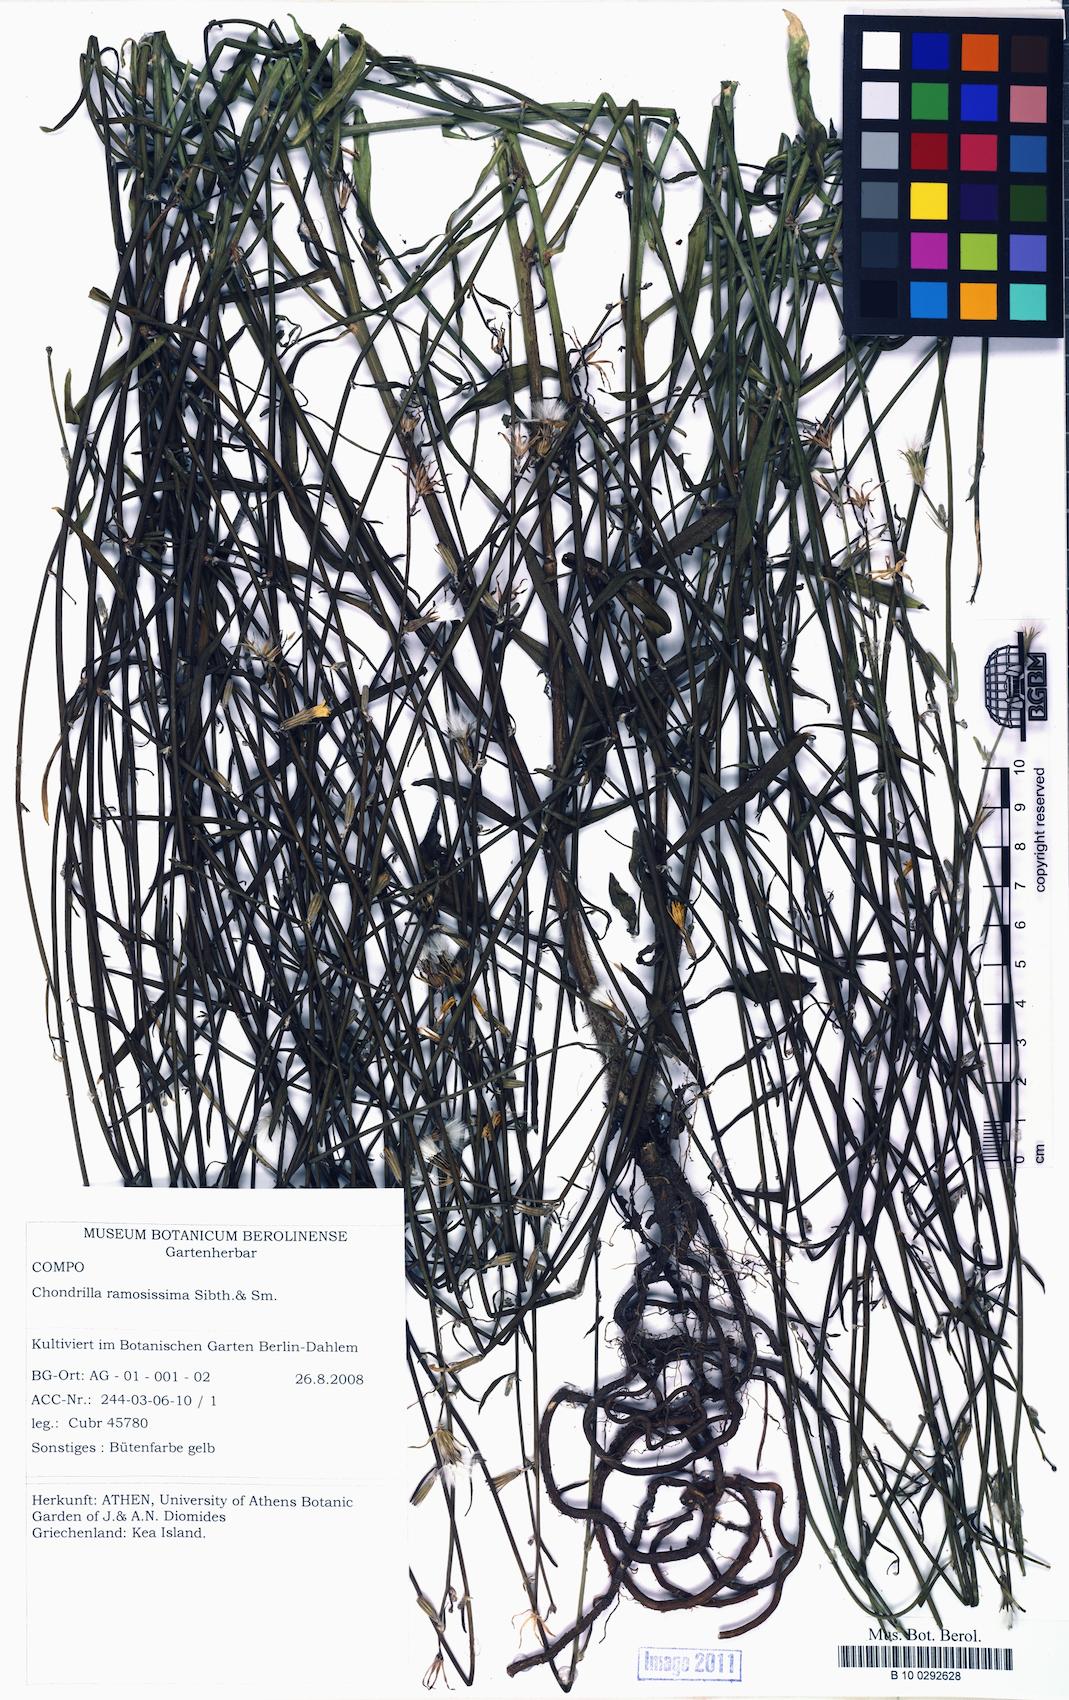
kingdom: Plantae
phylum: Tracheophyta
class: Magnoliopsida
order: Asterales
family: Asteraceae
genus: Chondrilla
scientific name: Chondrilla ramosissima
